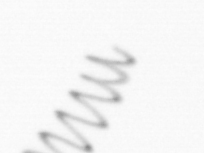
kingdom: Chromista
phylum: Ochrophyta
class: Bacillariophyceae
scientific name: Bacillariophyceae
